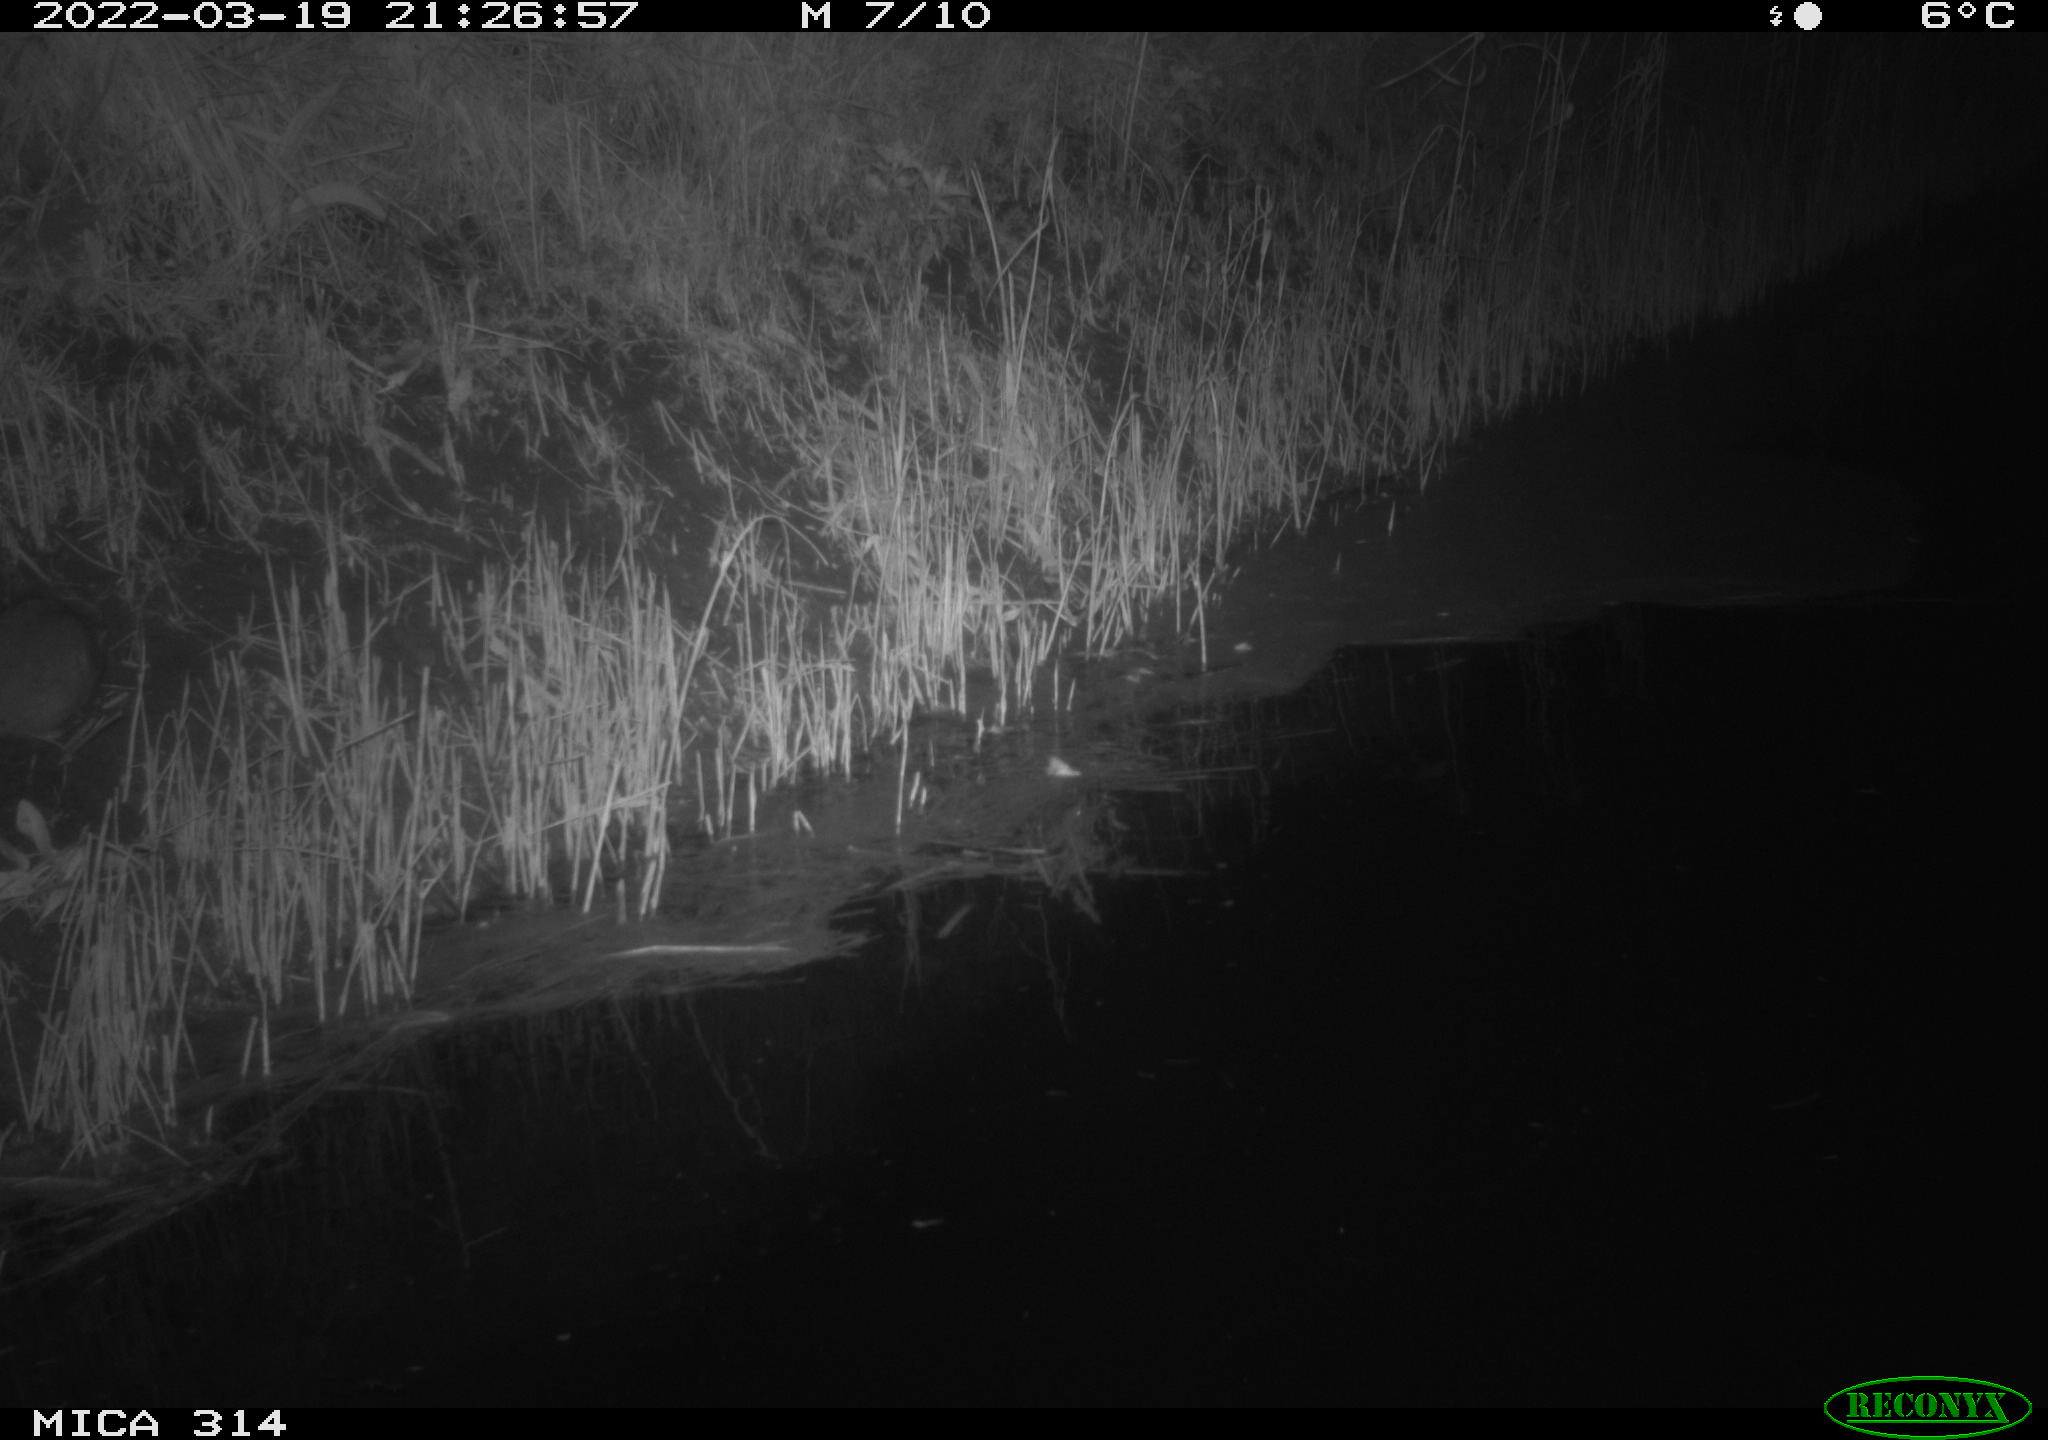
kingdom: Animalia
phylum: Chordata
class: Mammalia
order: Rodentia
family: Muridae
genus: Rattus
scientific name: Rattus norvegicus
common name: Brown rat
